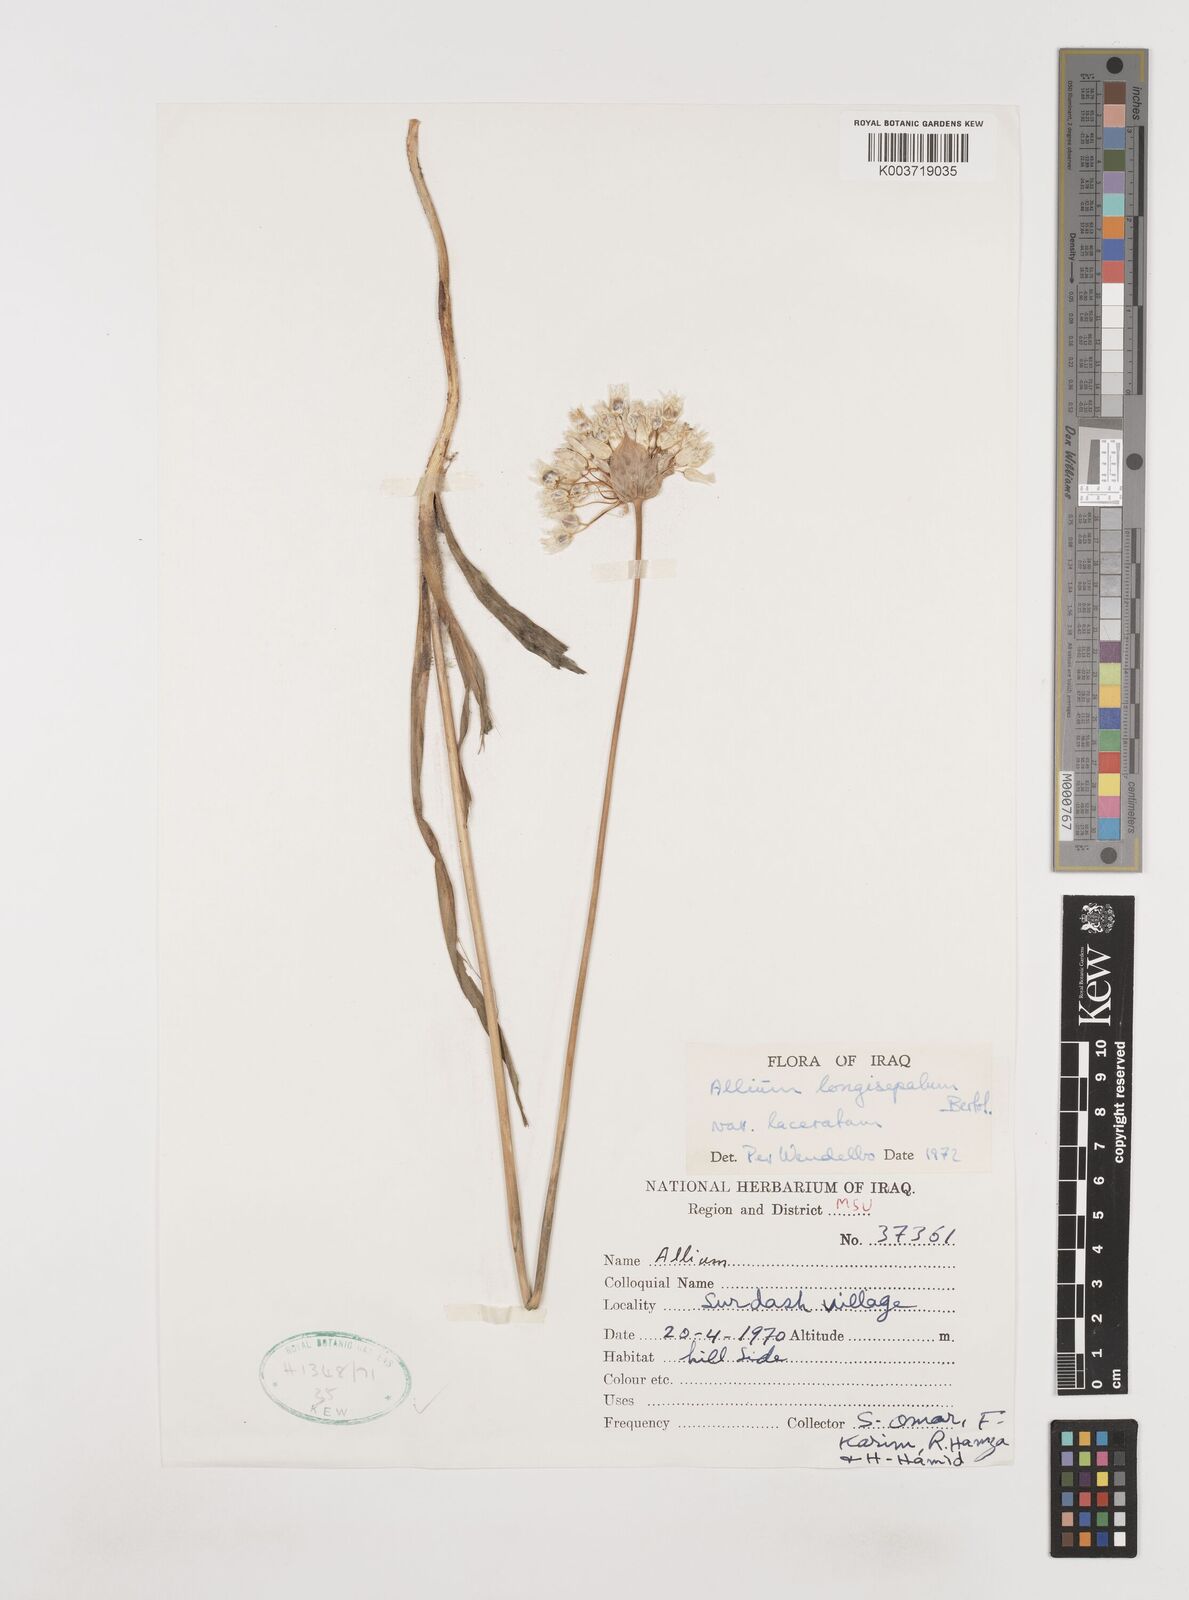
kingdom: Plantae
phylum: Tracheophyta
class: Liliopsida
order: Asparagales
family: Amaryllidaceae
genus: Allium
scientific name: Allium longisepalum
